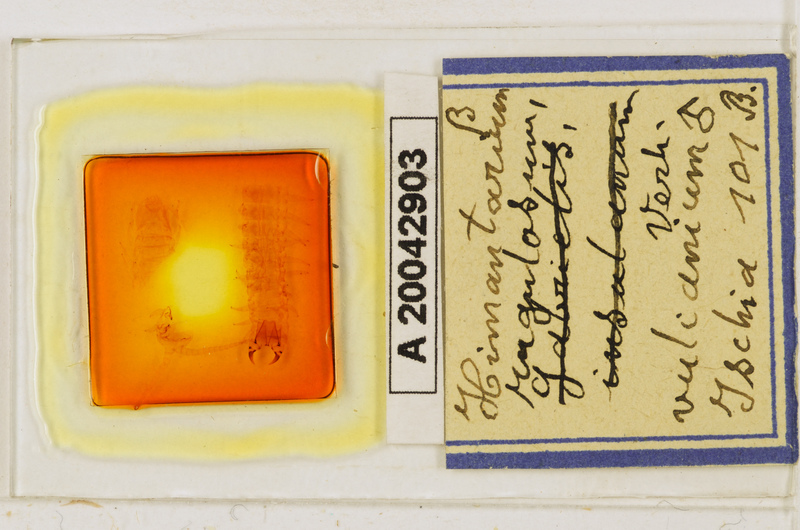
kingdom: Animalia
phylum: Arthropoda
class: Chilopoda
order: Geophilomorpha
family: Himantariidae
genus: Himantarium
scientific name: Himantarium gabrielis
